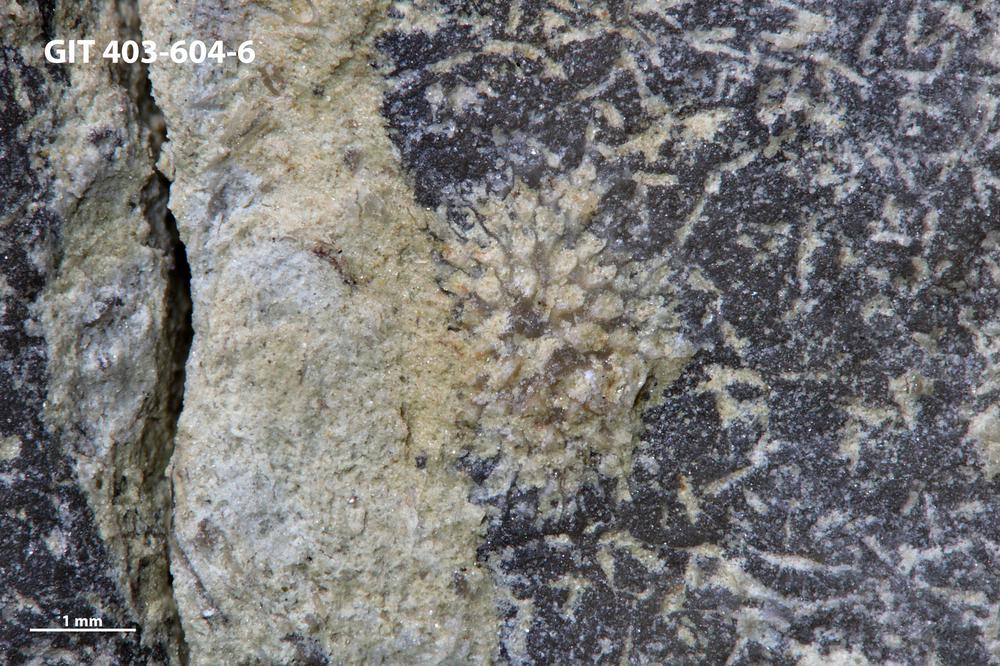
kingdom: Animalia
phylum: Bryozoa
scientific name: Bryozoa
